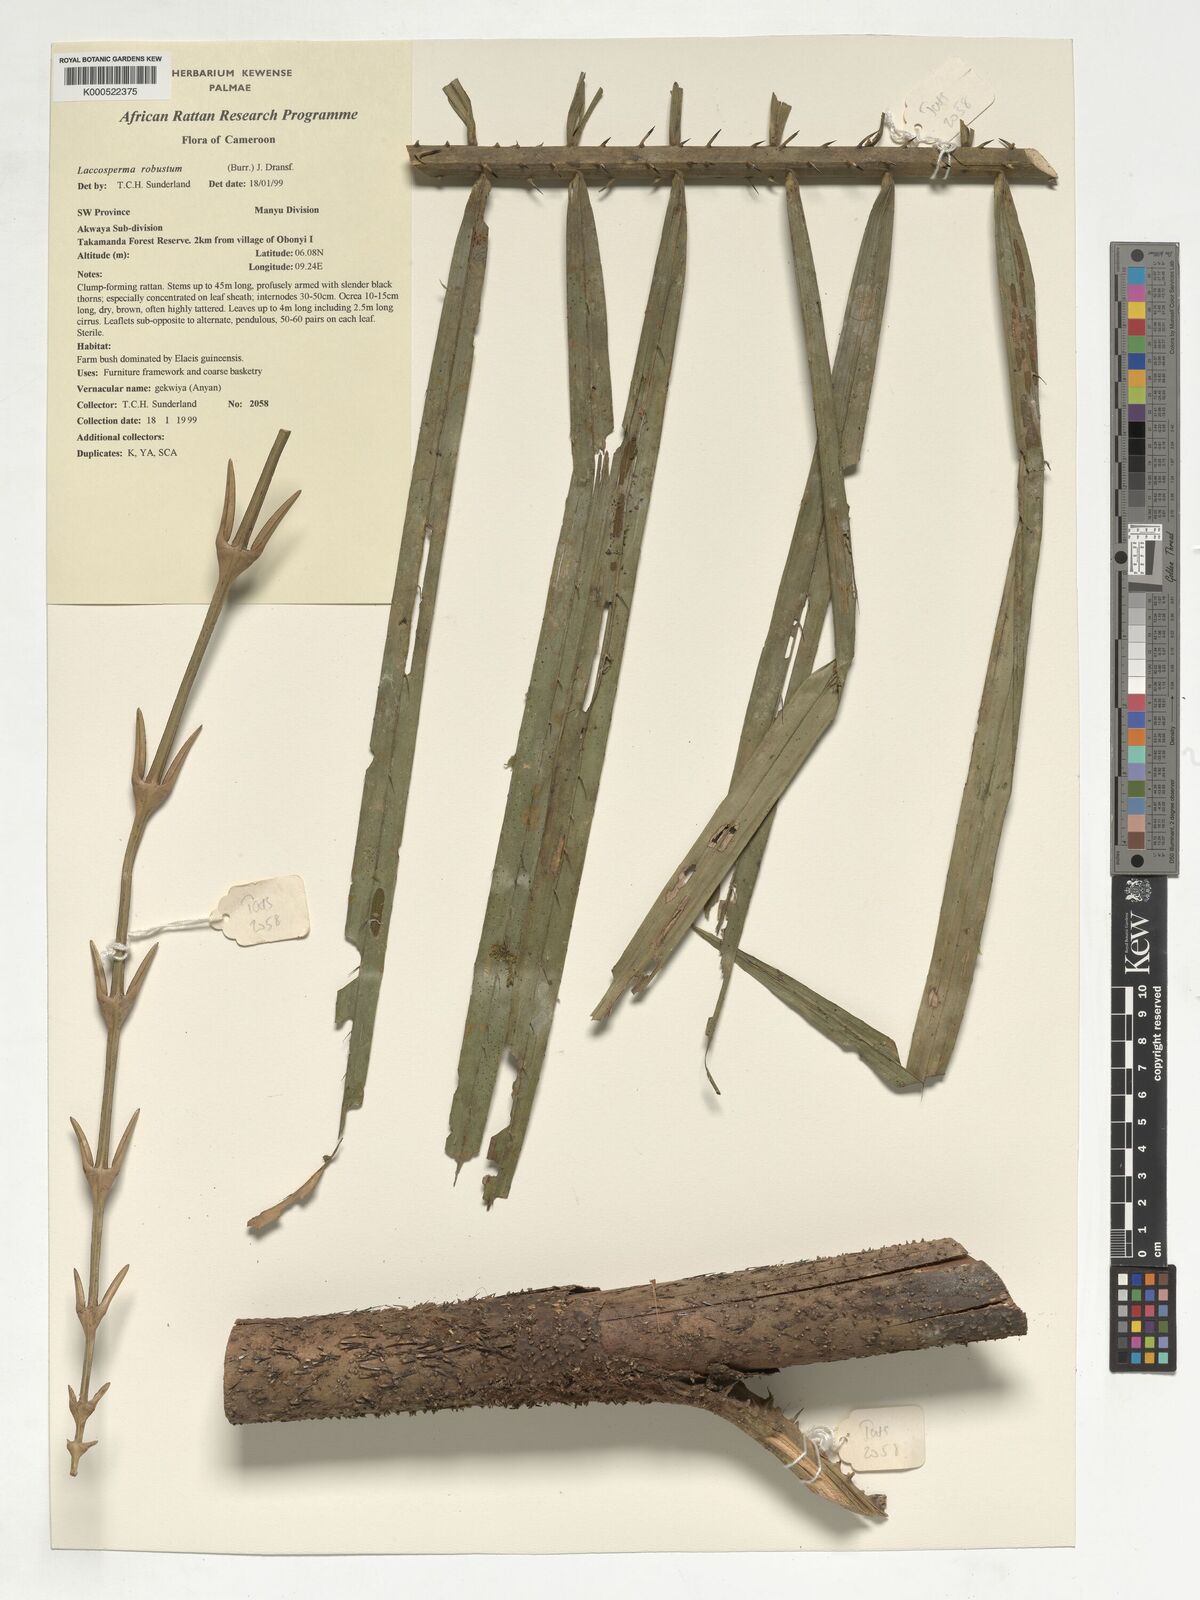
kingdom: Plantae
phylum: Tracheophyta
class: Liliopsida
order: Arecales
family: Arecaceae
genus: Laccosperma
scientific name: Laccosperma robustum
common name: Rattan
